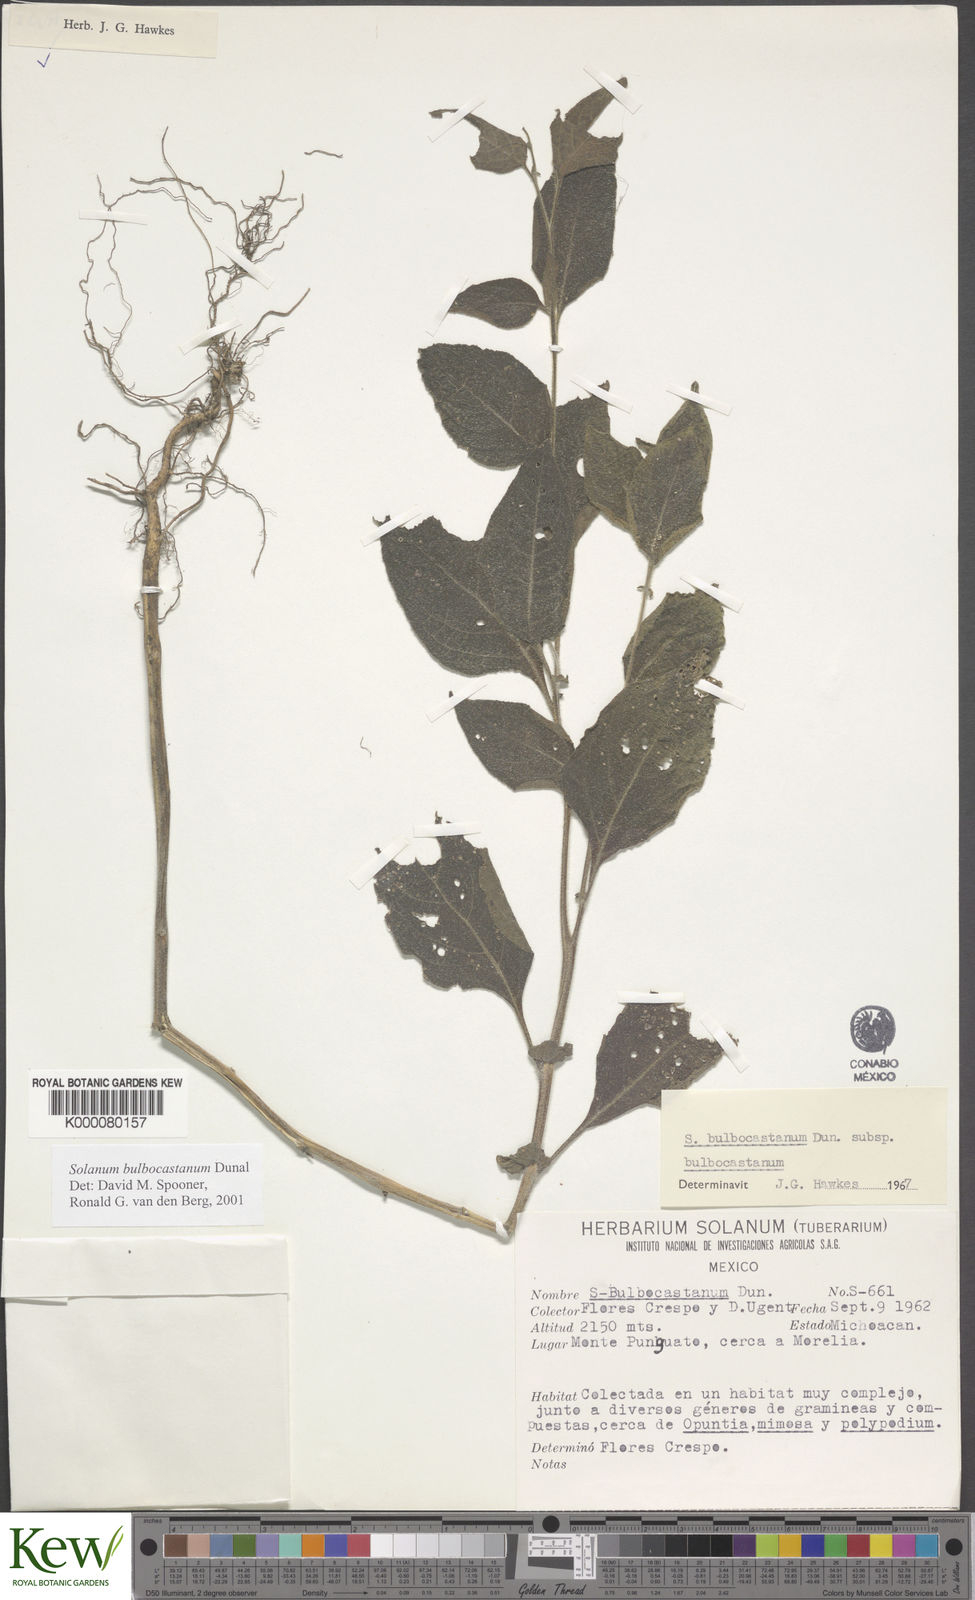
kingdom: Plantae
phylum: Tracheophyta
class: Magnoliopsida
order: Solanales
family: Solanaceae
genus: Solanum
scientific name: Solanum bulbocastanum
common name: Ornamental nightshade
